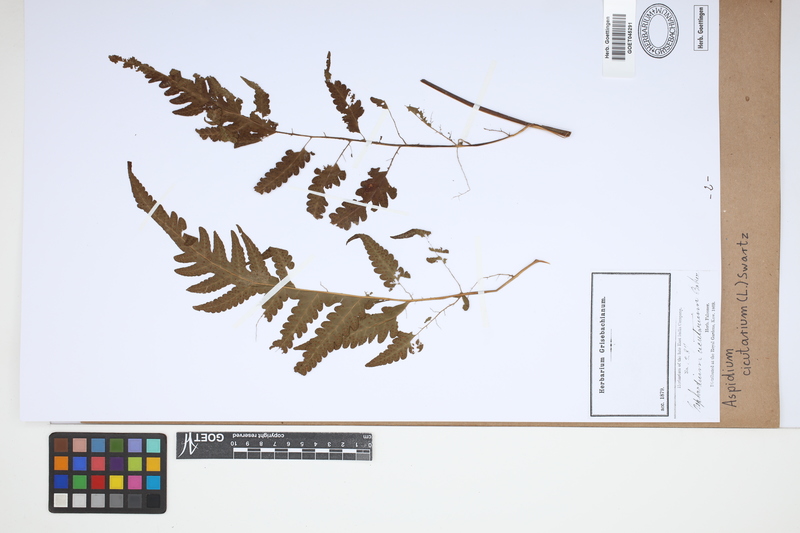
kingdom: Plantae
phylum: Tracheophyta
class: Polypodiopsida
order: Polypodiales
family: Tectariaceae
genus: Tectaria
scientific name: Tectaria cicutaria
